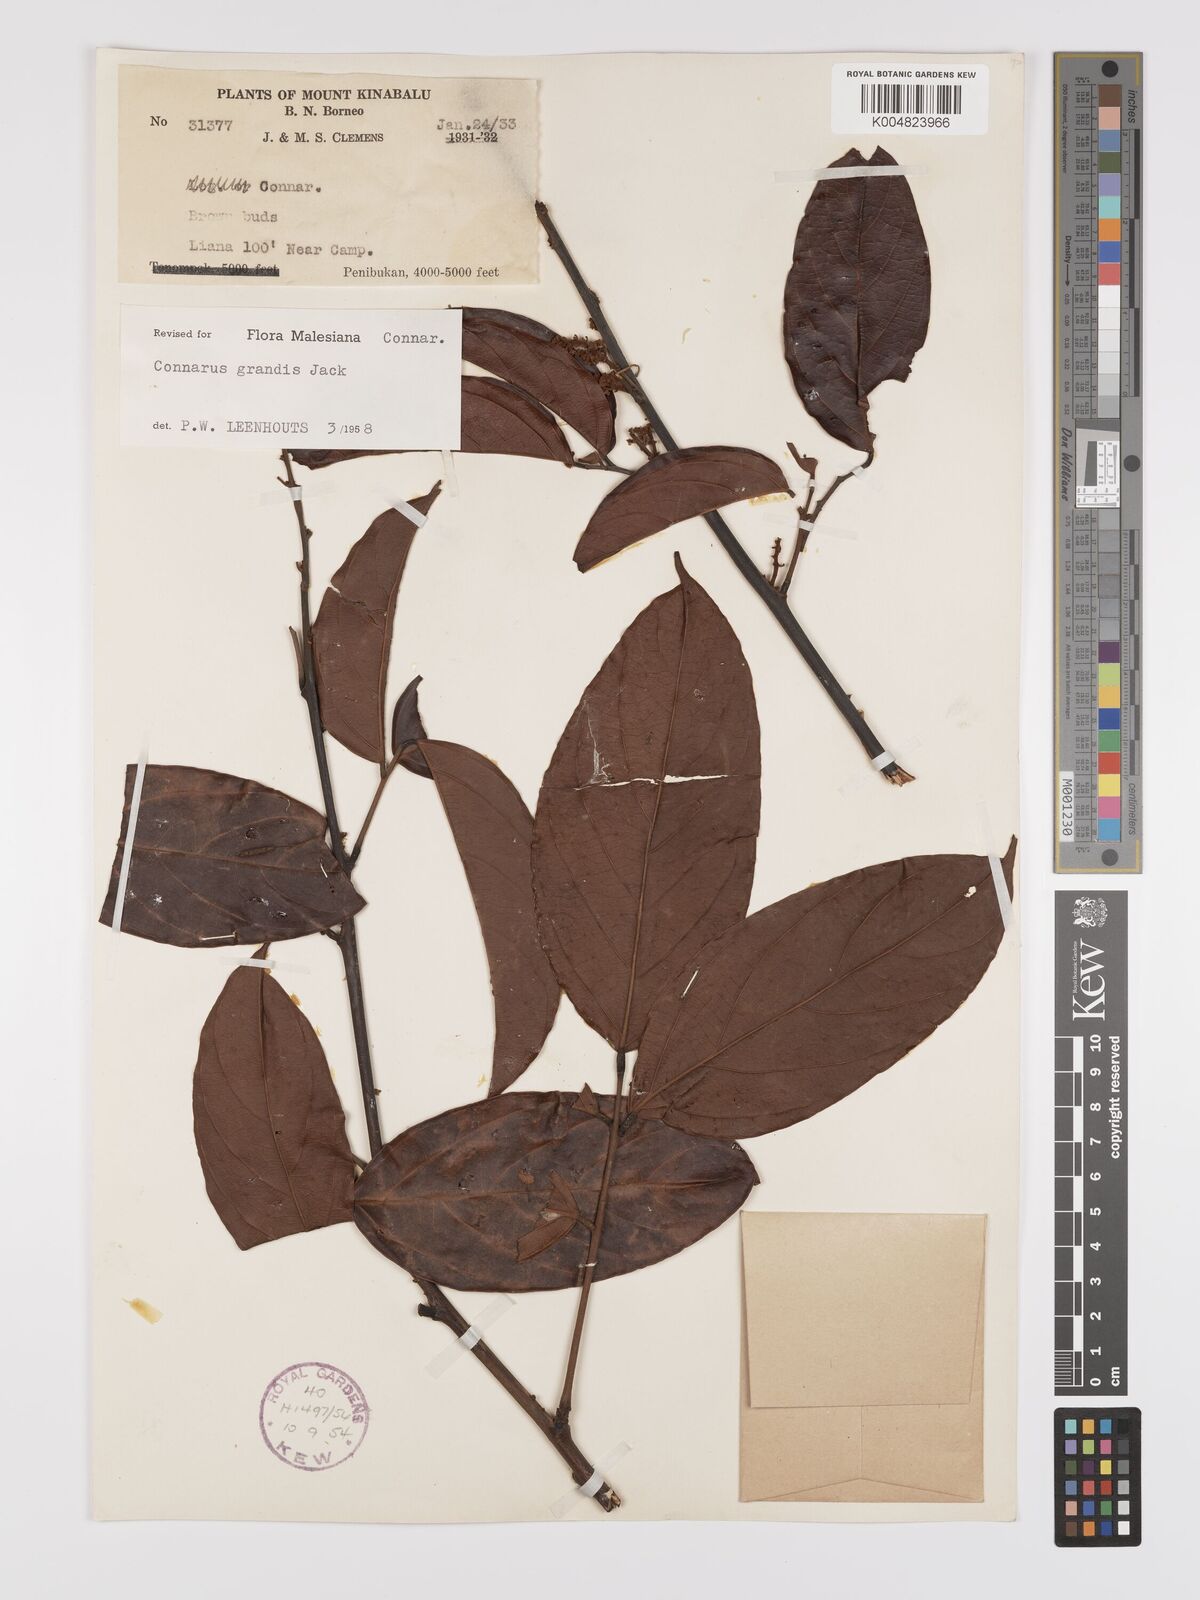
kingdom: Plantae
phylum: Tracheophyta
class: Magnoliopsida
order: Oxalidales
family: Connaraceae
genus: Connarus
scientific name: Connarus grandis
